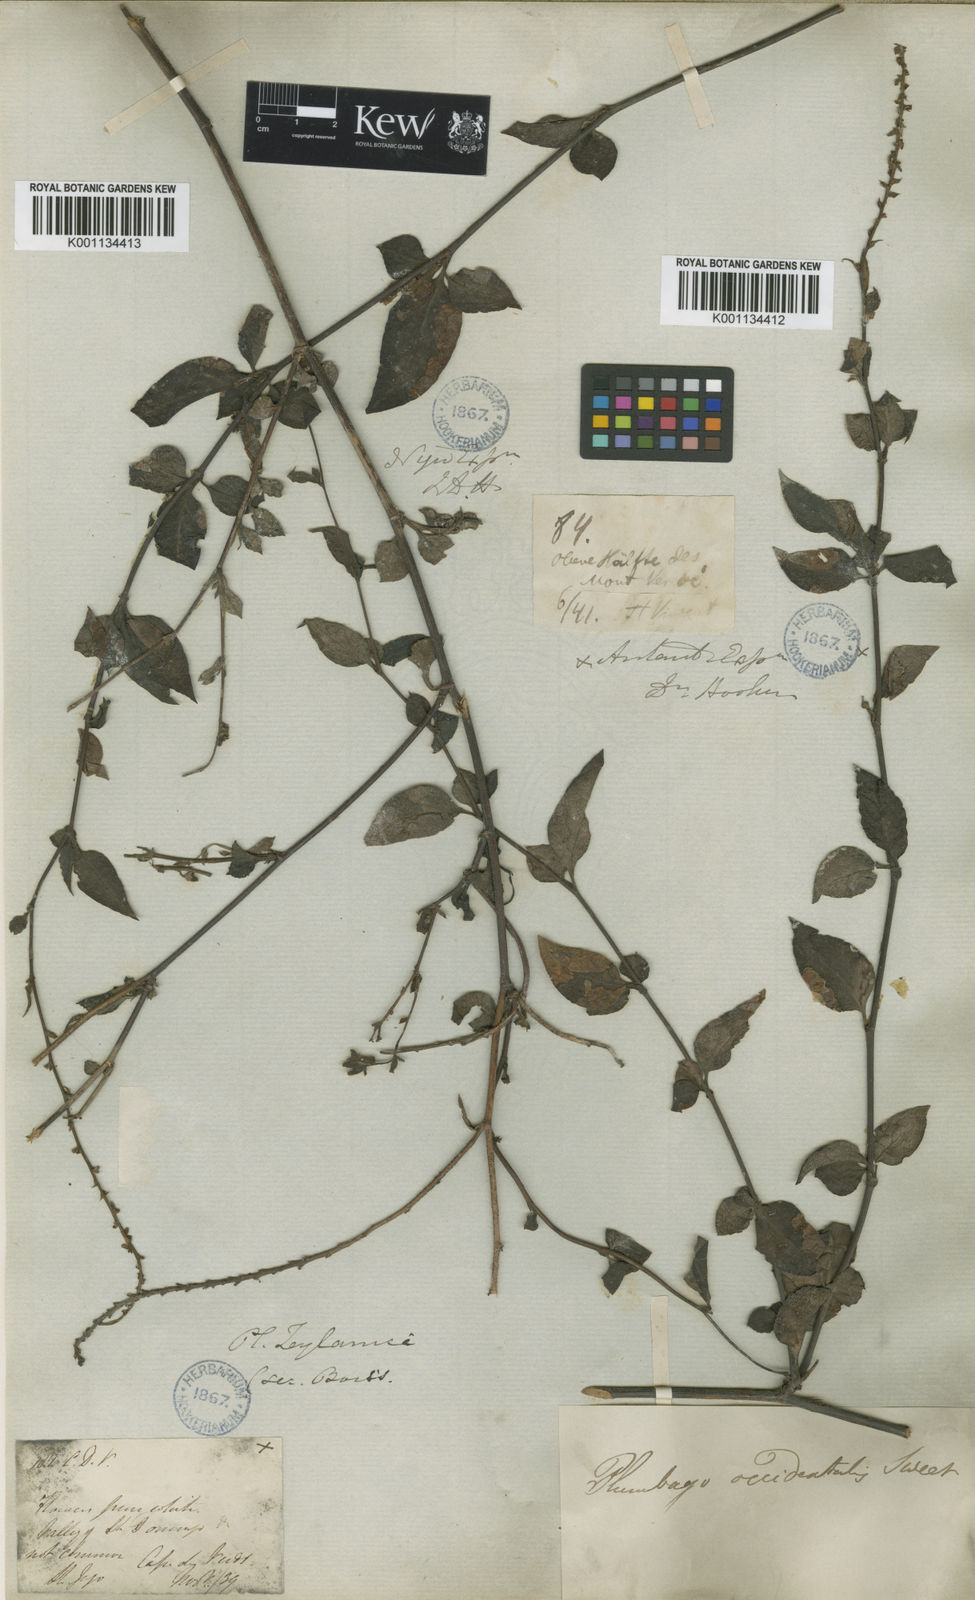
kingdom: Plantae
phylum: Tracheophyta
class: Magnoliopsida
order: Caryophyllales
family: Plumbaginaceae
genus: Plumbago
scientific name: Plumbago zeylanica
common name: Doctorbush
